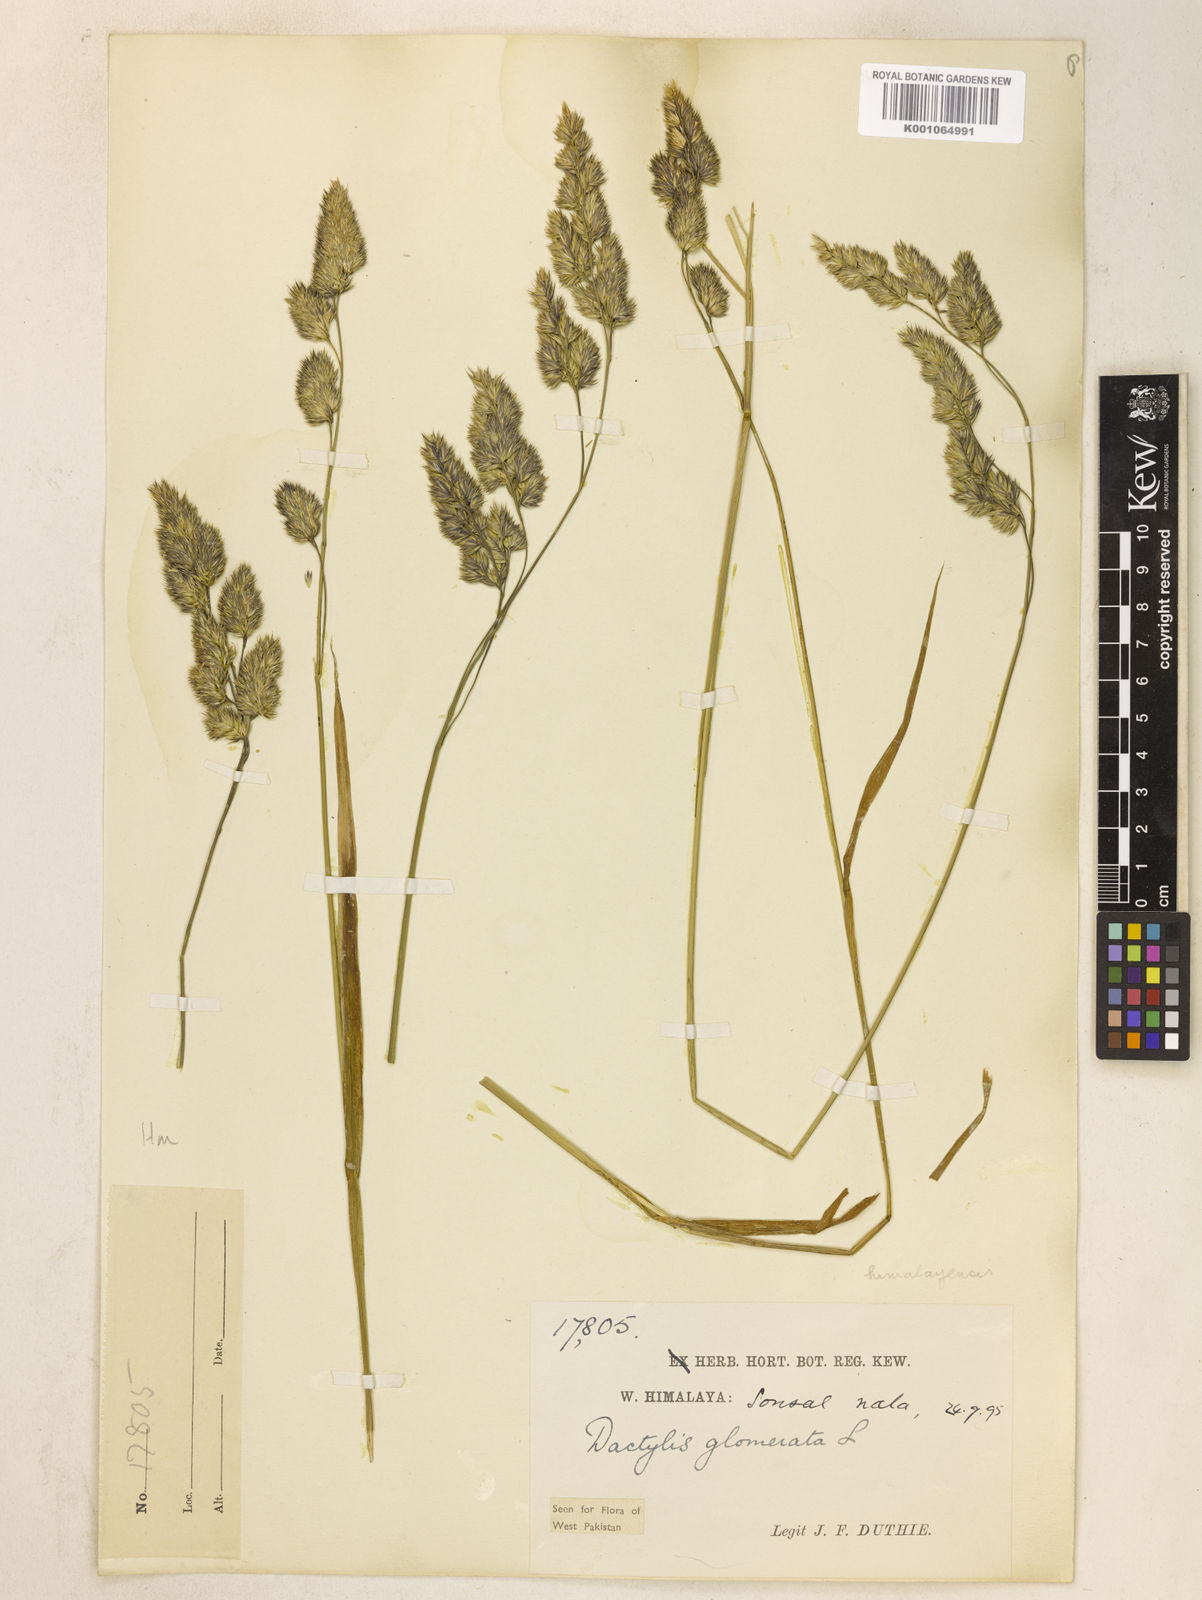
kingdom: Plantae
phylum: Tracheophyta
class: Liliopsida
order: Poales
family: Poaceae
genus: Dactylis
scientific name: Dactylis glomerata
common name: Orchardgrass
